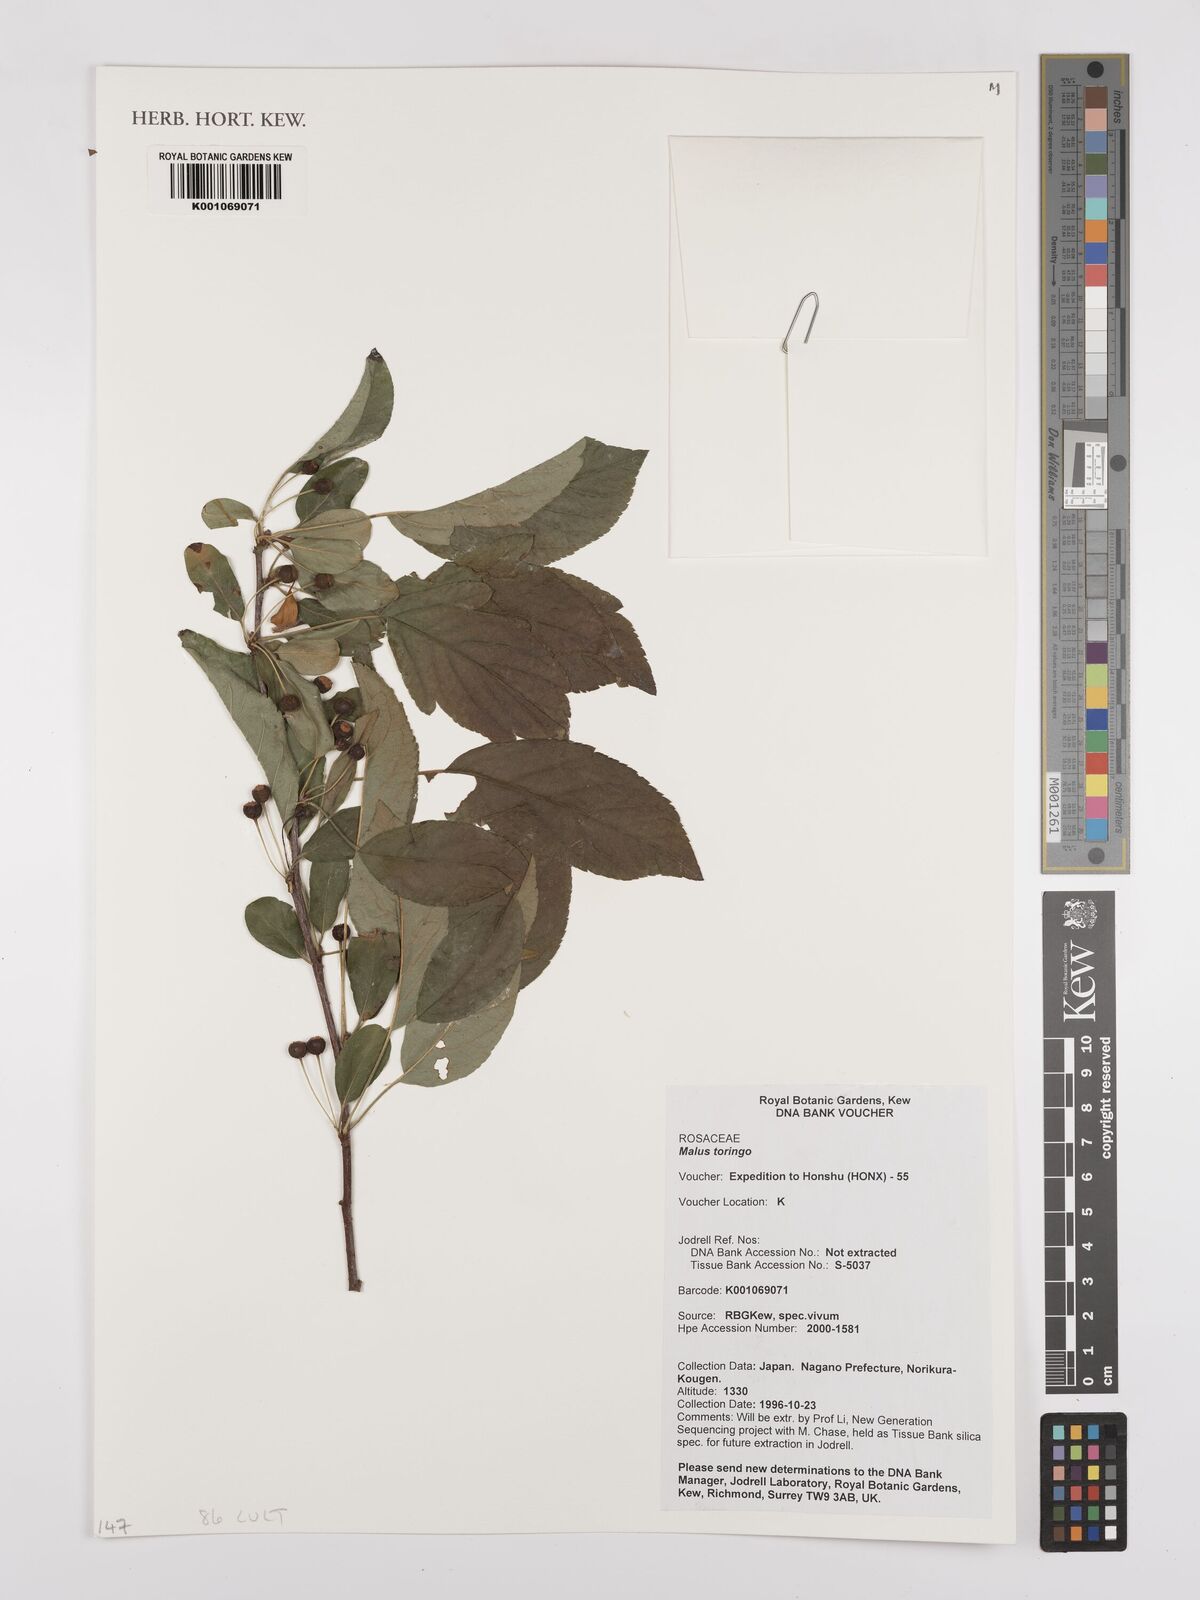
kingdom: Plantae
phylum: Tracheophyta
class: Magnoliopsida
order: Rosales
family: Rosaceae
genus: Malus
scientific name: Malus toringo
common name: Japanese crabapple
